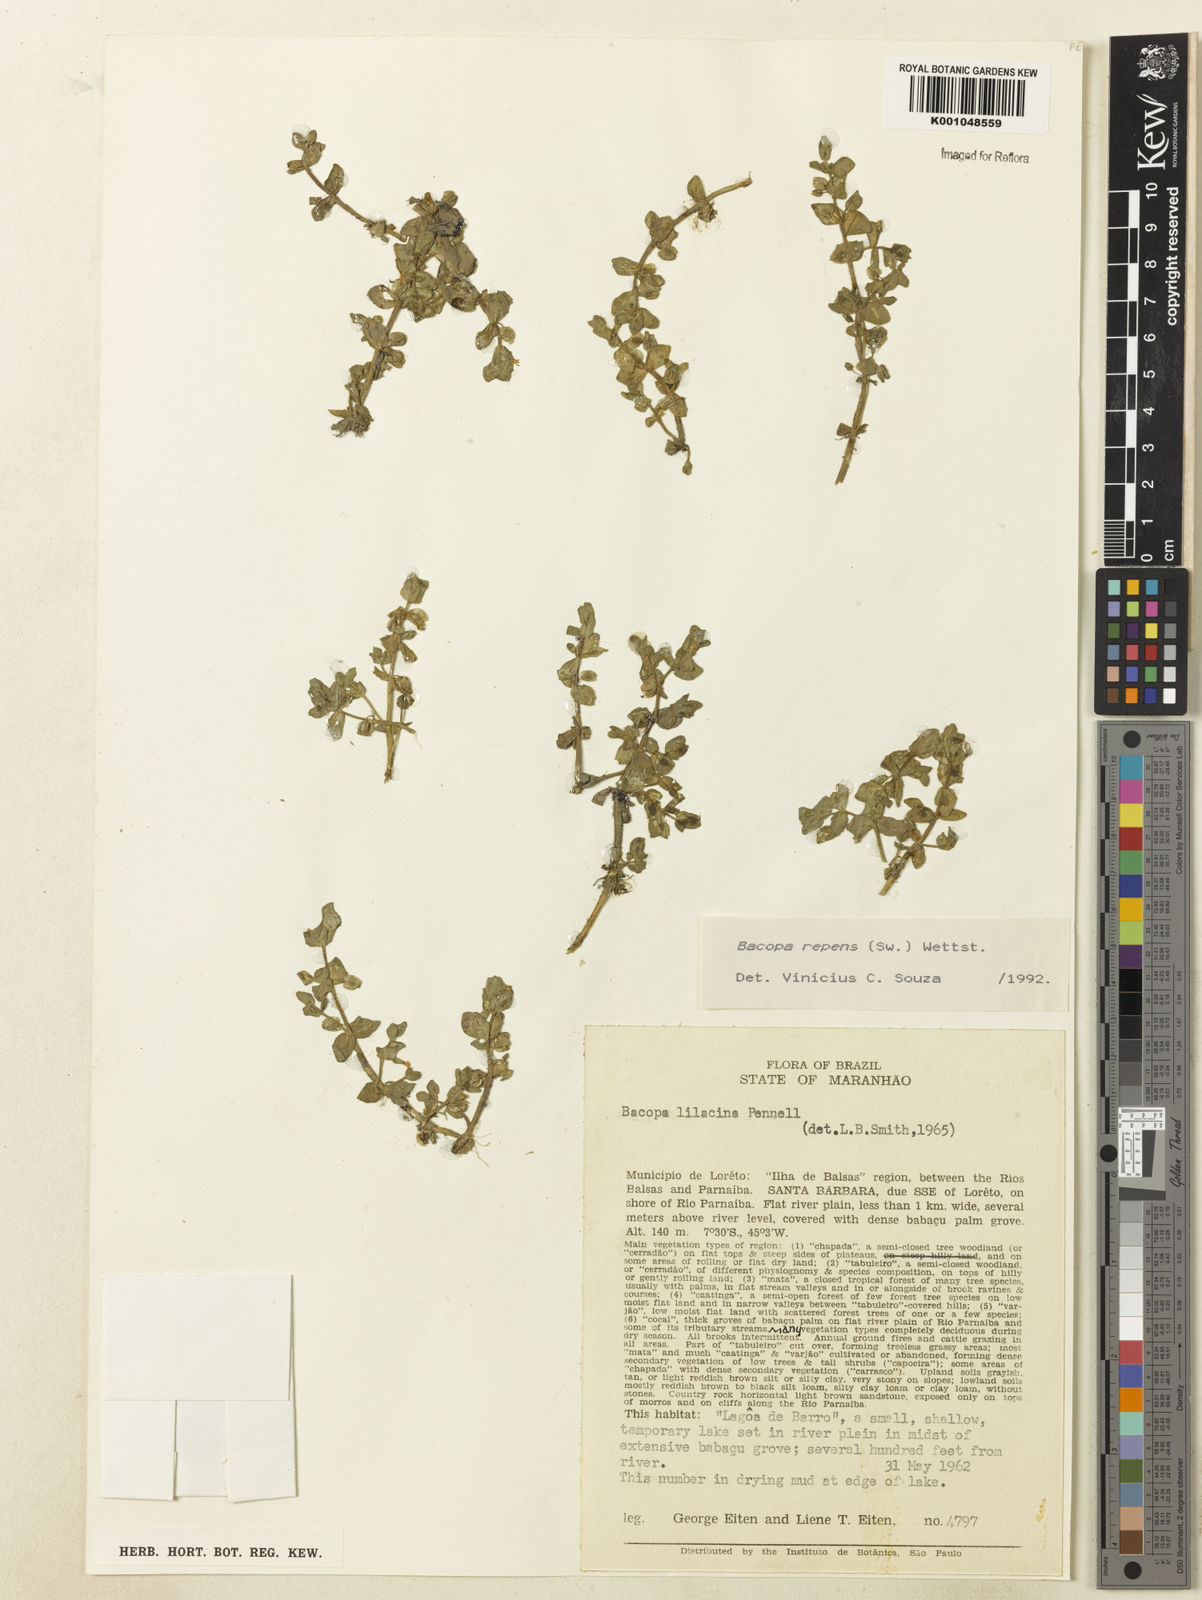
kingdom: Plantae
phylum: Tracheophyta
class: Magnoliopsida
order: Lamiales
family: Plantaginaceae
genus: Bacopa
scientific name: Bacopa repens
